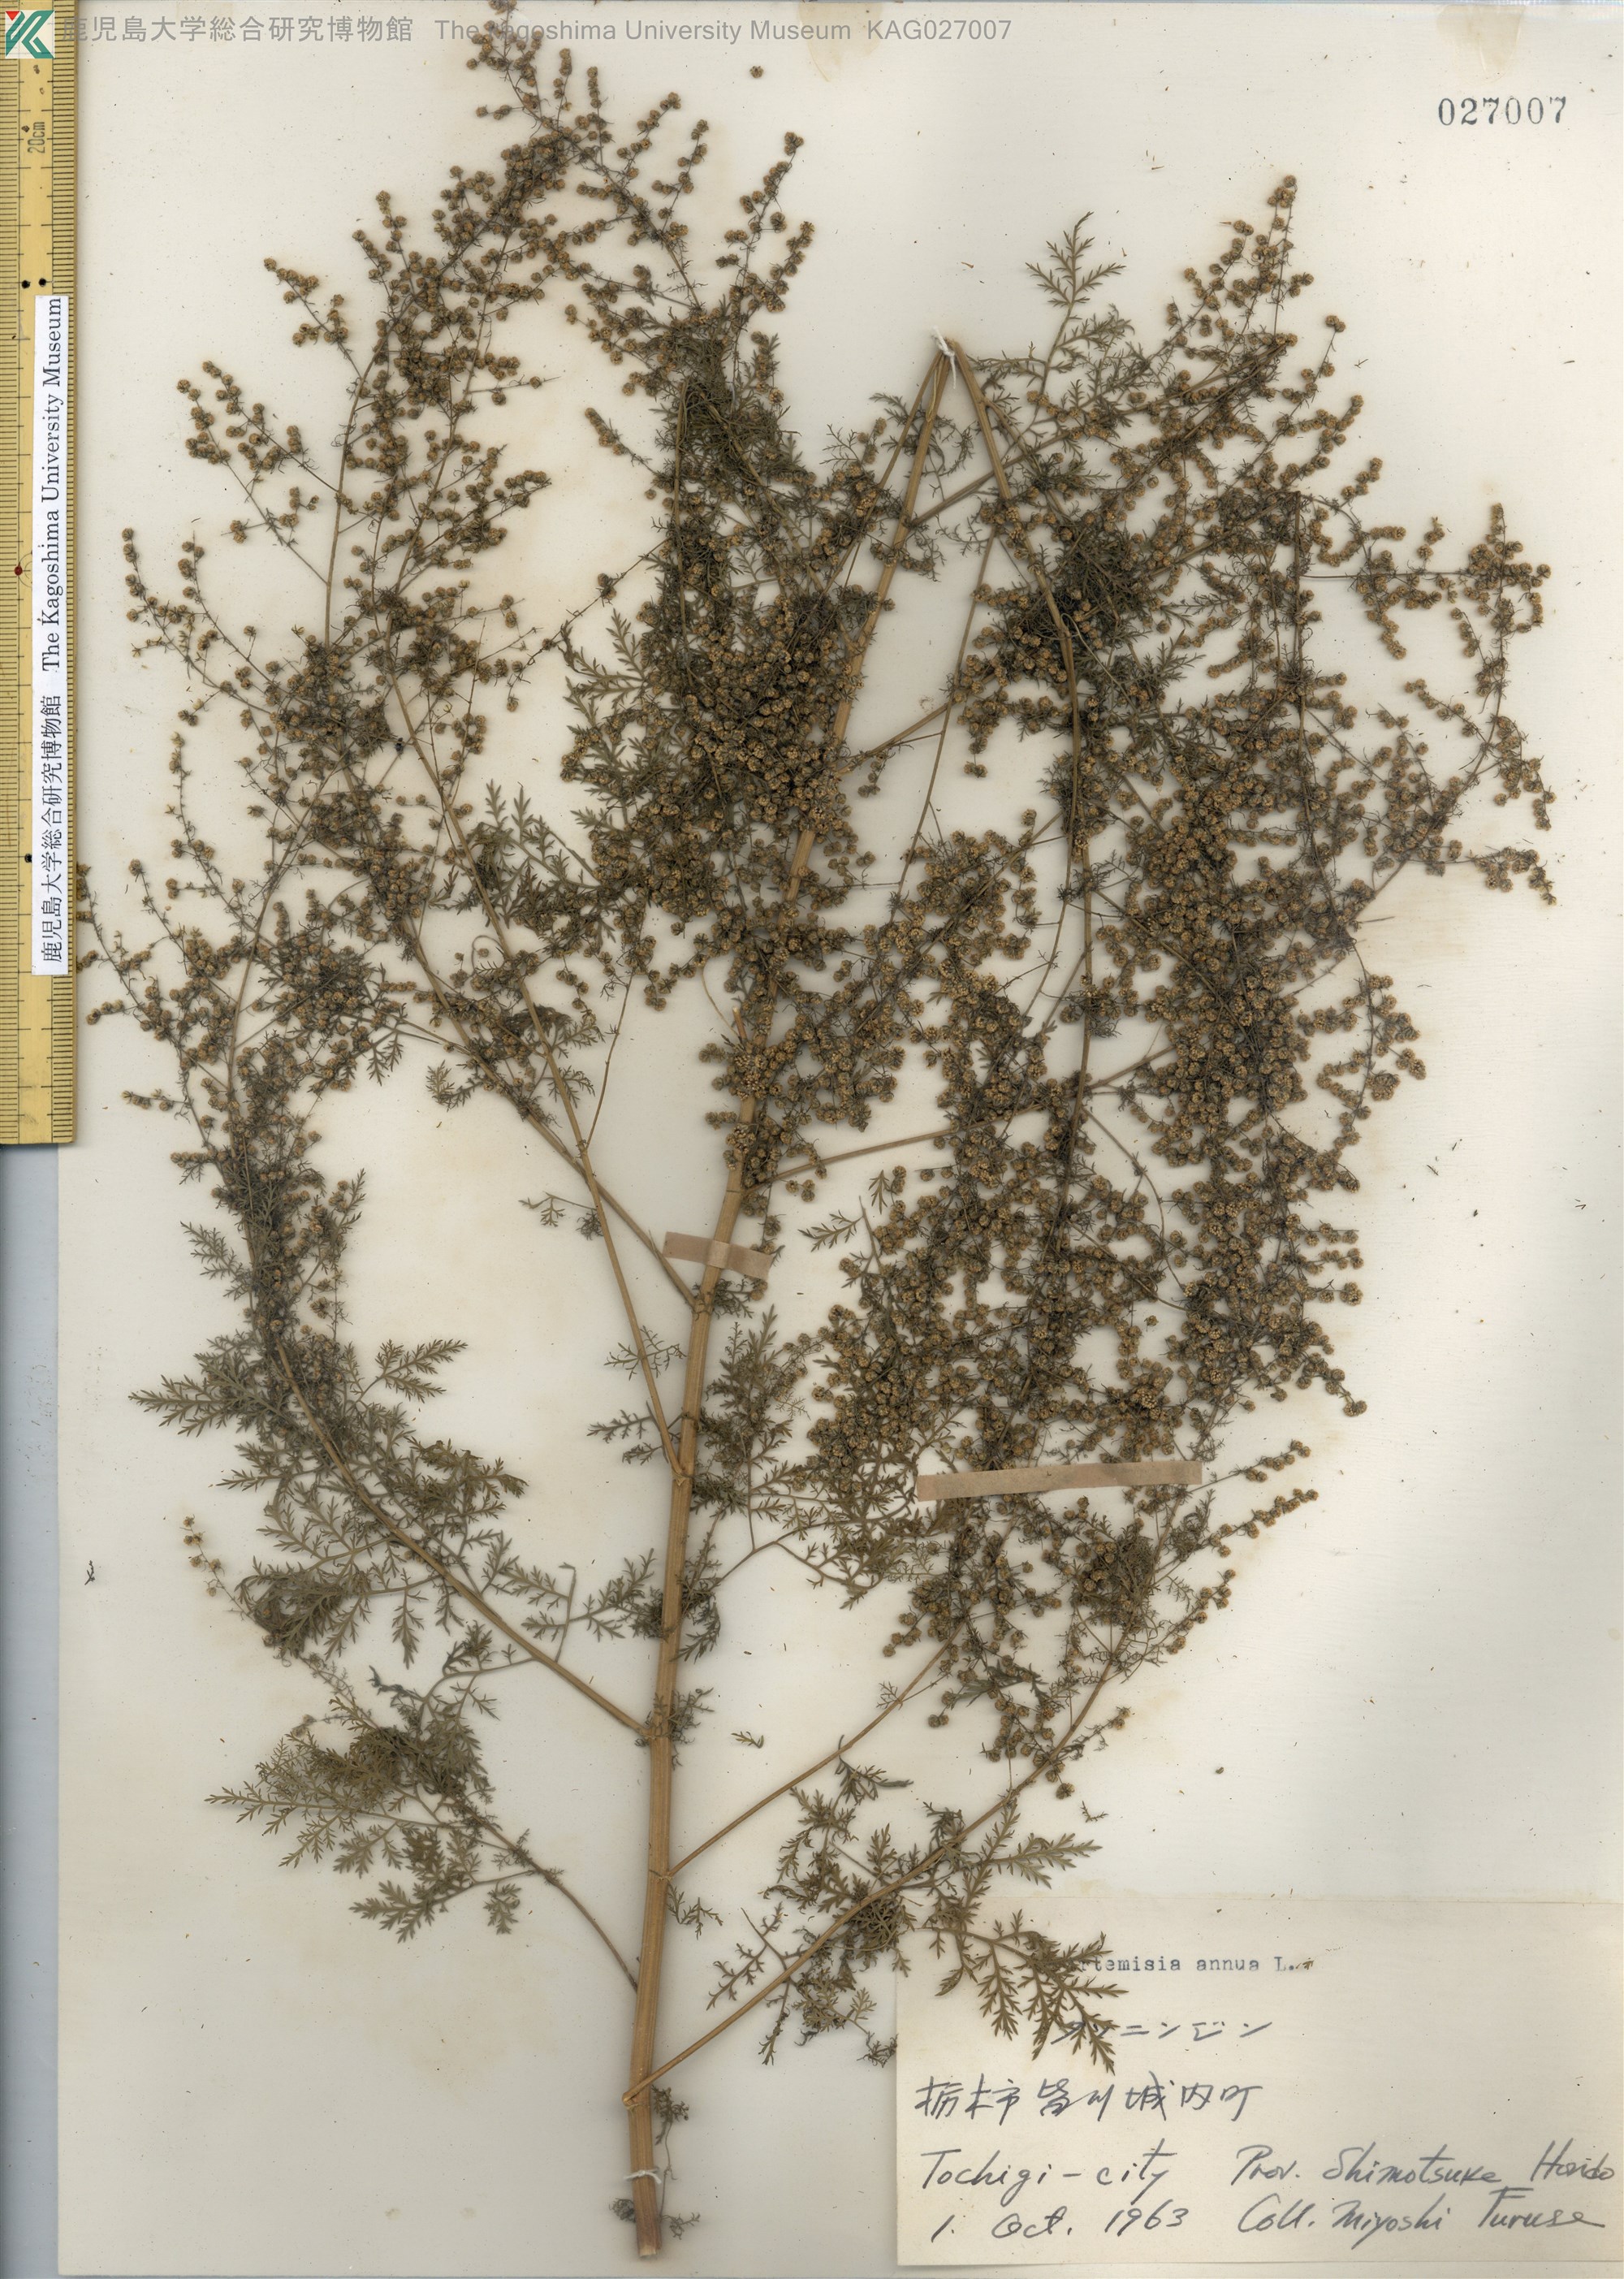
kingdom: Plantae
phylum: Tracheophyta
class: Magnoliopsida
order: Asterales
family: Asteraceae
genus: Artemisia
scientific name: Artemisia annua
